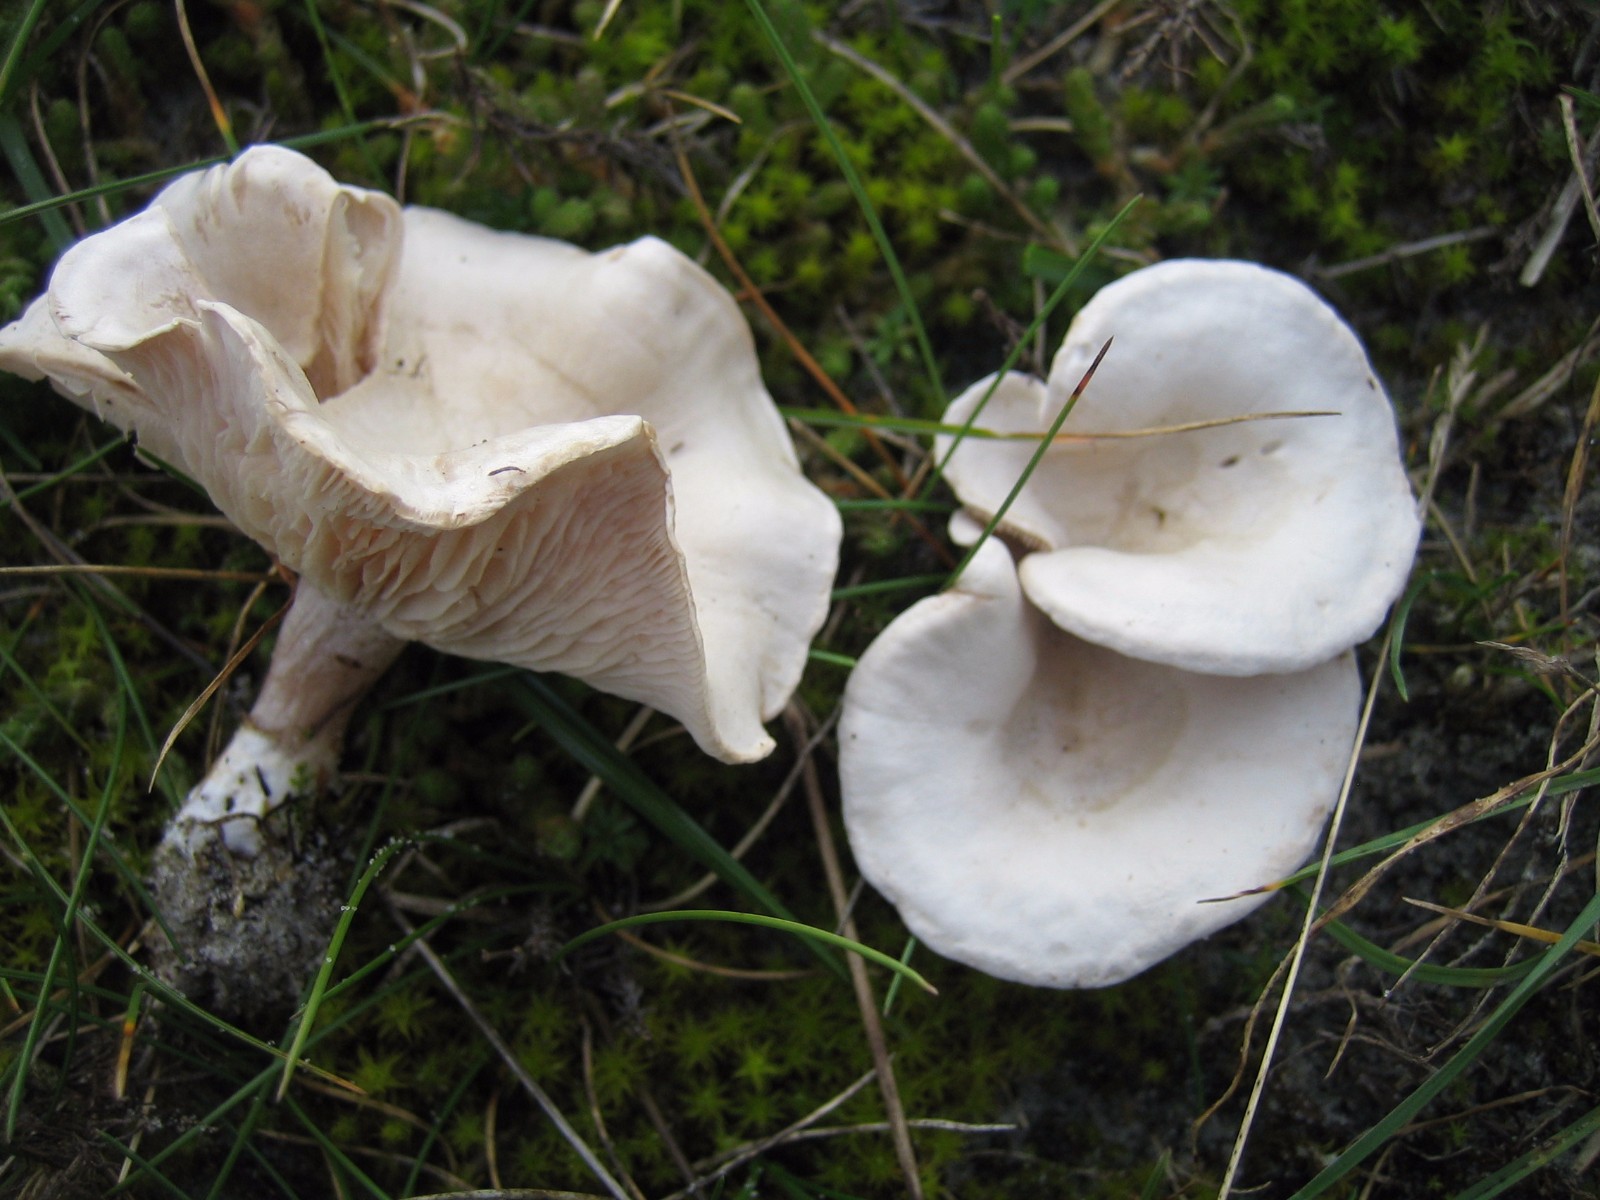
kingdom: Fungi
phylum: Basidiomycota
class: Agaricomycetes
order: Agaricales
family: Tricholomataceae
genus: Clitocybe
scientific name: Clitocybe
